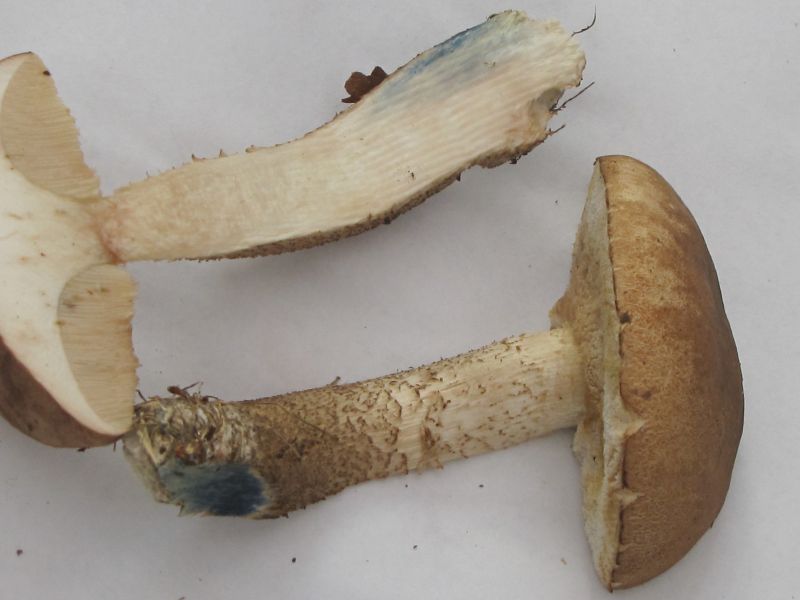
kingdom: Fungi
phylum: Basidiomycota
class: Agaricomycetes
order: Boletales
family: Boletaceae
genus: Leccinum
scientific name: Leccinum scabrum
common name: hvid skælrørhat
